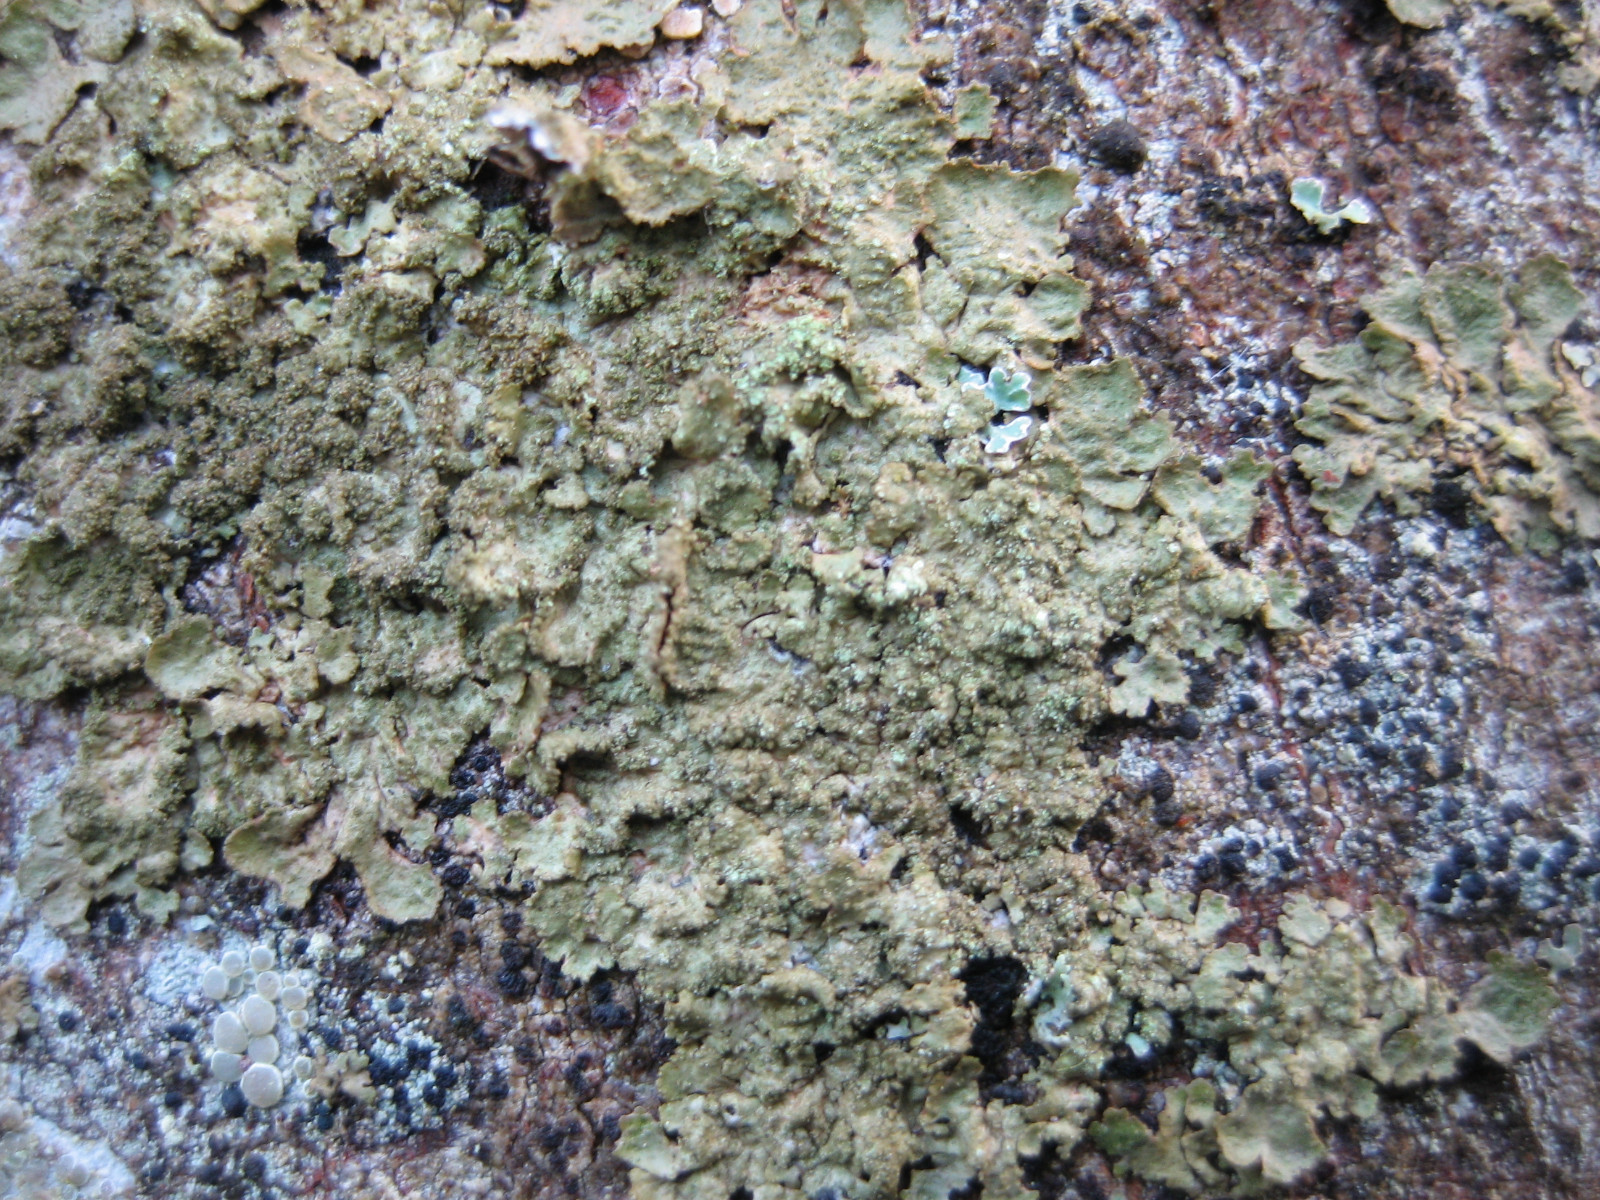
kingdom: Fungi
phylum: Ascomycota
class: Lecanoromycetes
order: Lecanorales
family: Parmeliaceae
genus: Melanelixia
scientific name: Melanelixia subaurifera
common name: guldpudret skållav
